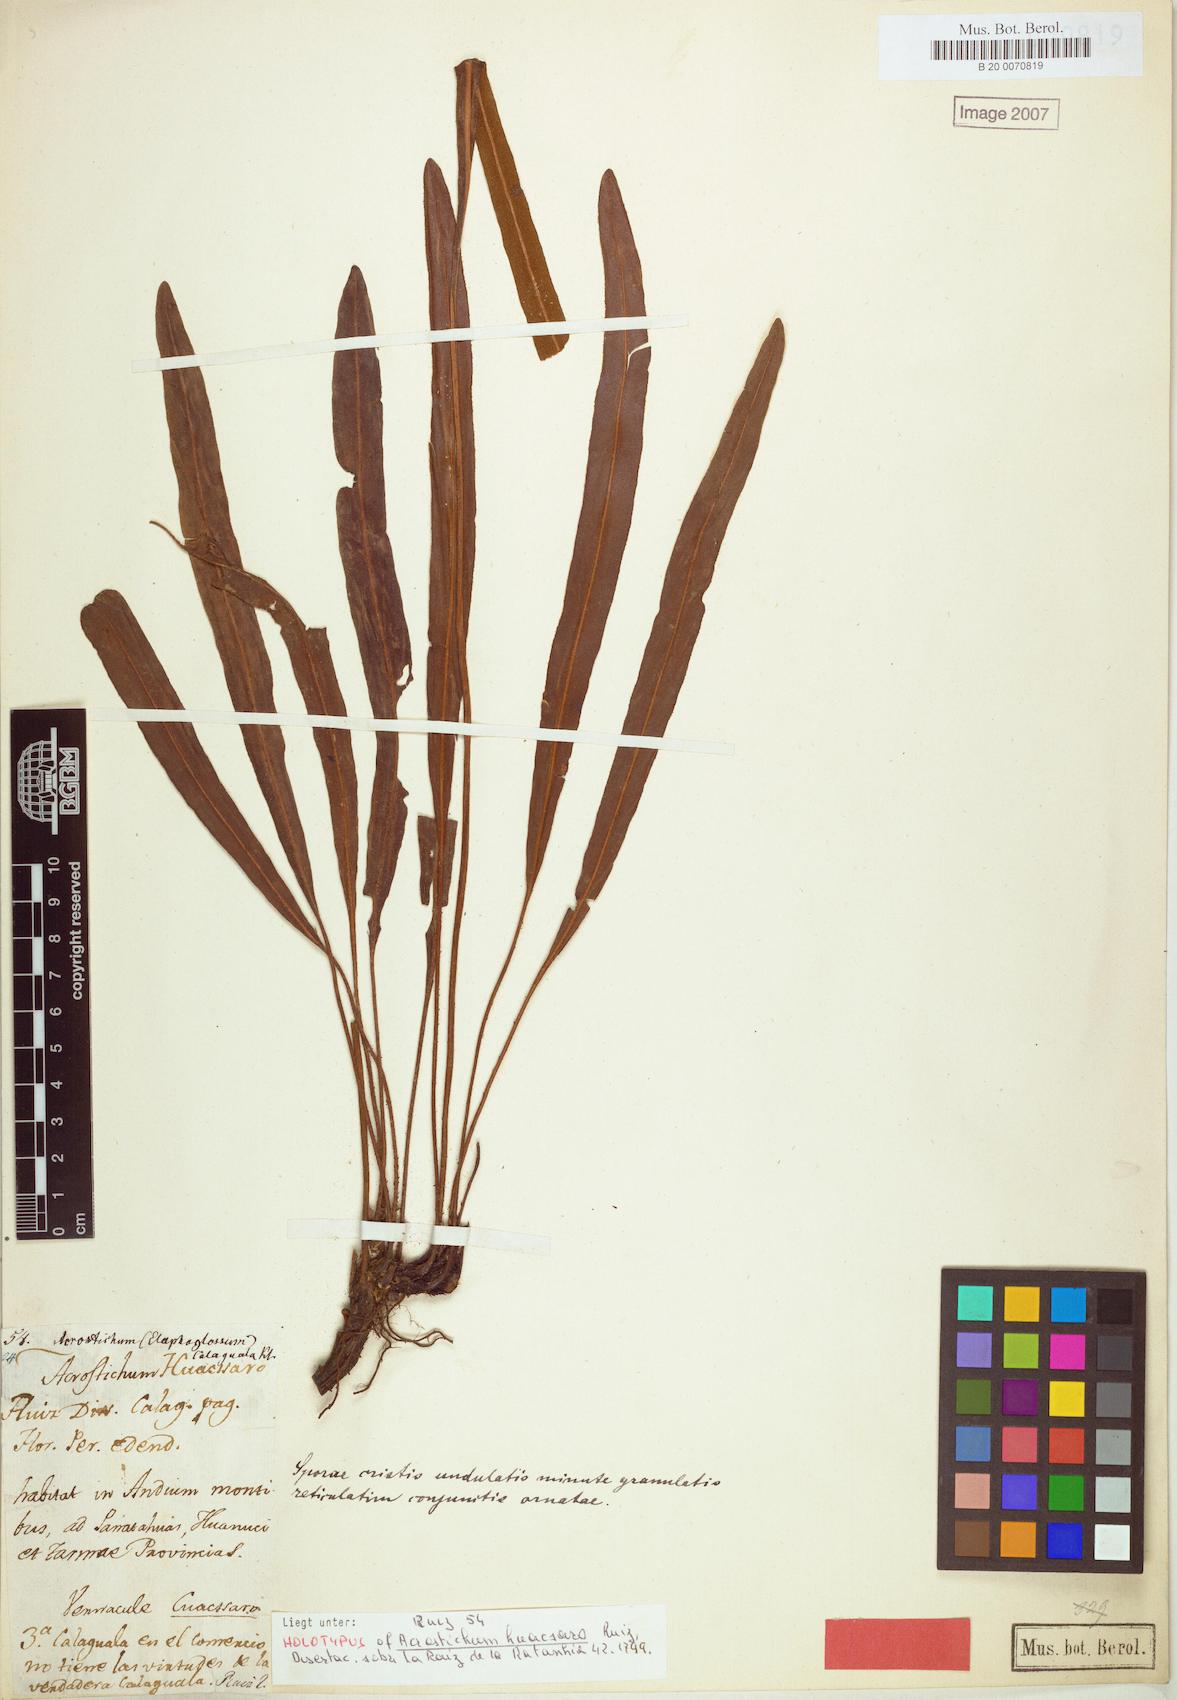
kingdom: Plantae
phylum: Tracheophyta
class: Polypodiopsida
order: Polypodiales
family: Dryopteridaceae
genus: Elaphoglossum
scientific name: Elaphoglossum huacsaro
